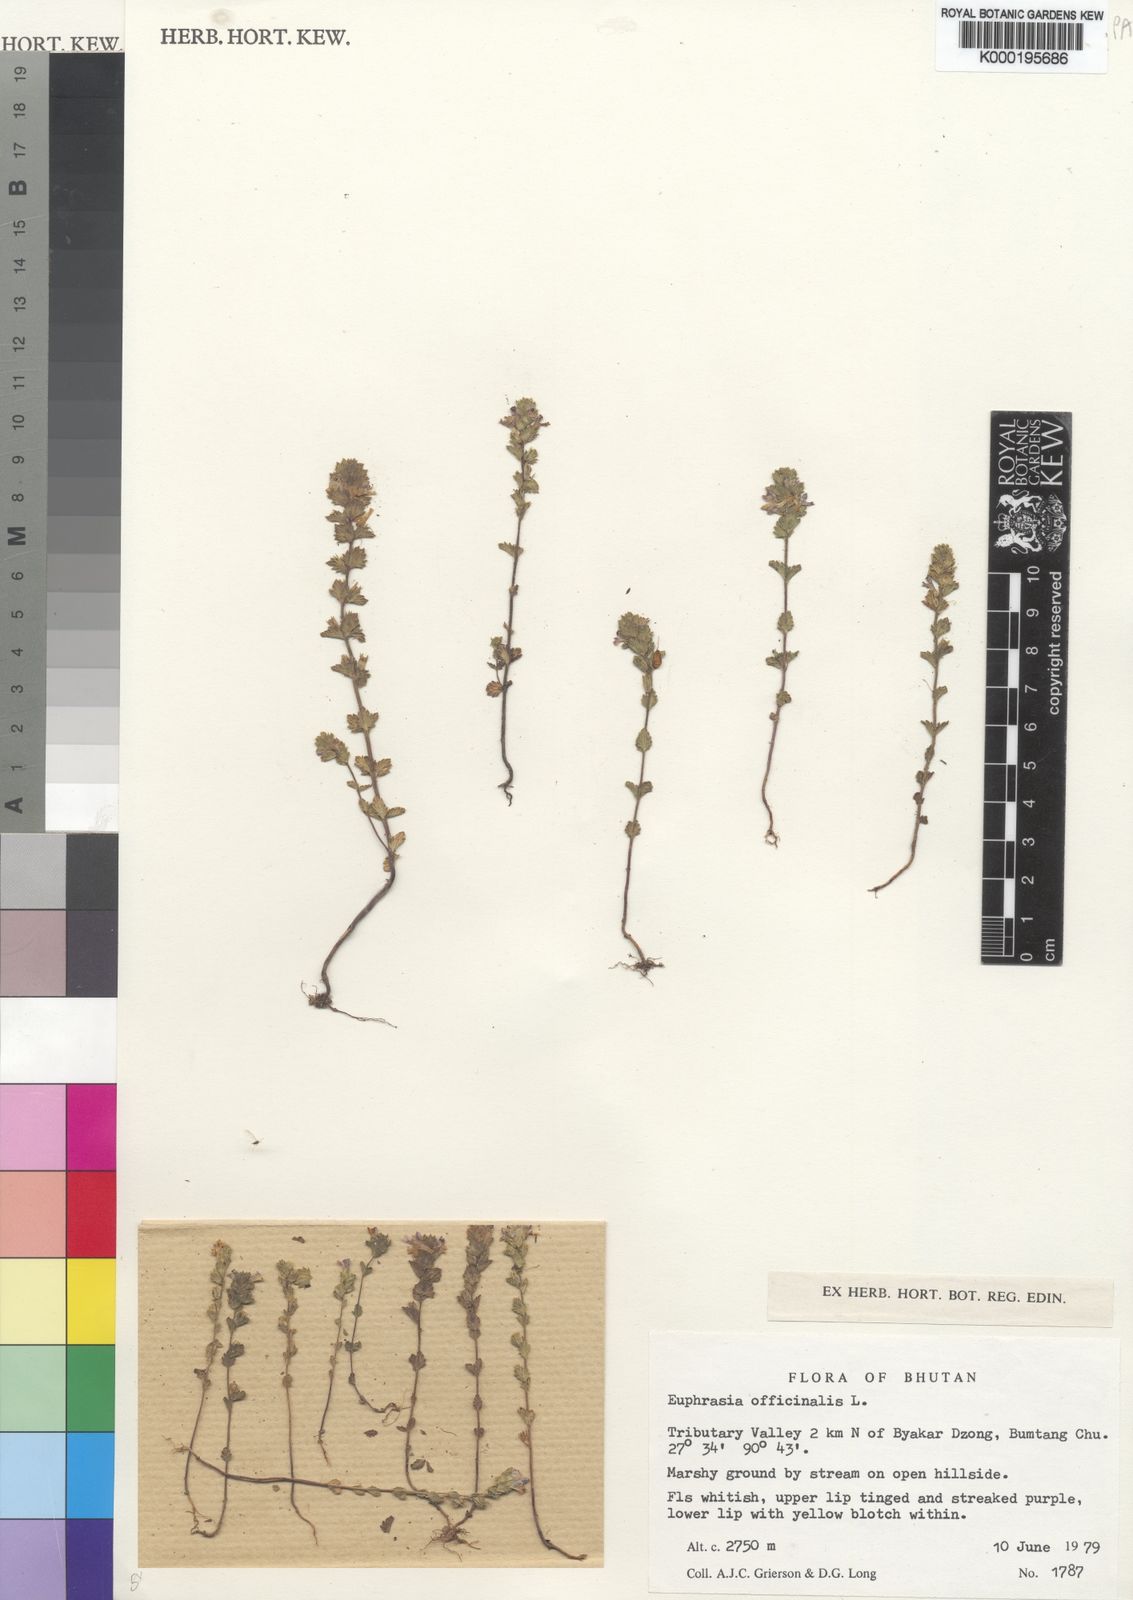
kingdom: Plantae
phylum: Tracheophyta
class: Magnoliopsida
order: Lamiales
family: Orobanchaceae
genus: Euphrasia
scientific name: Euphrasia officinalis
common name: Eyebright
